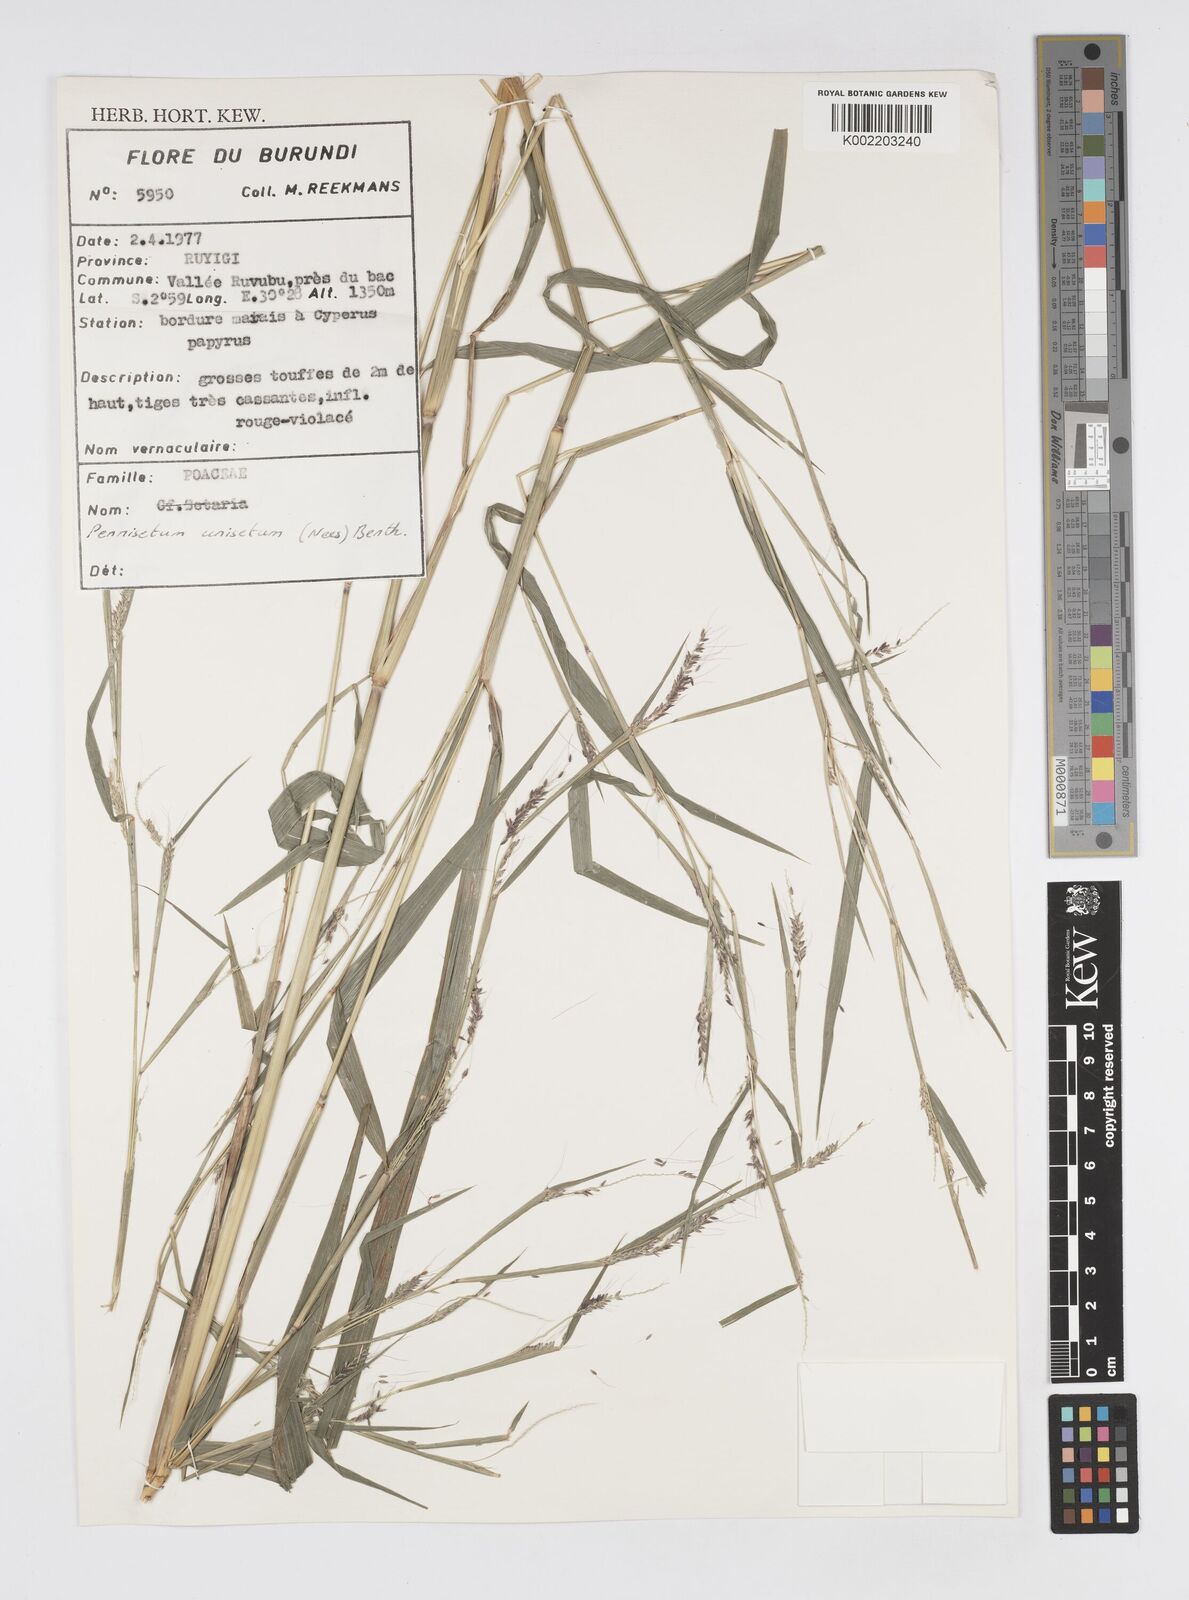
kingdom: Plantae
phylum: Tracheophyta
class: Liliopsida
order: Poales
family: Poaceae
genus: Cenchrus
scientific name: Cenchrus unisetus
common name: Natal grass
